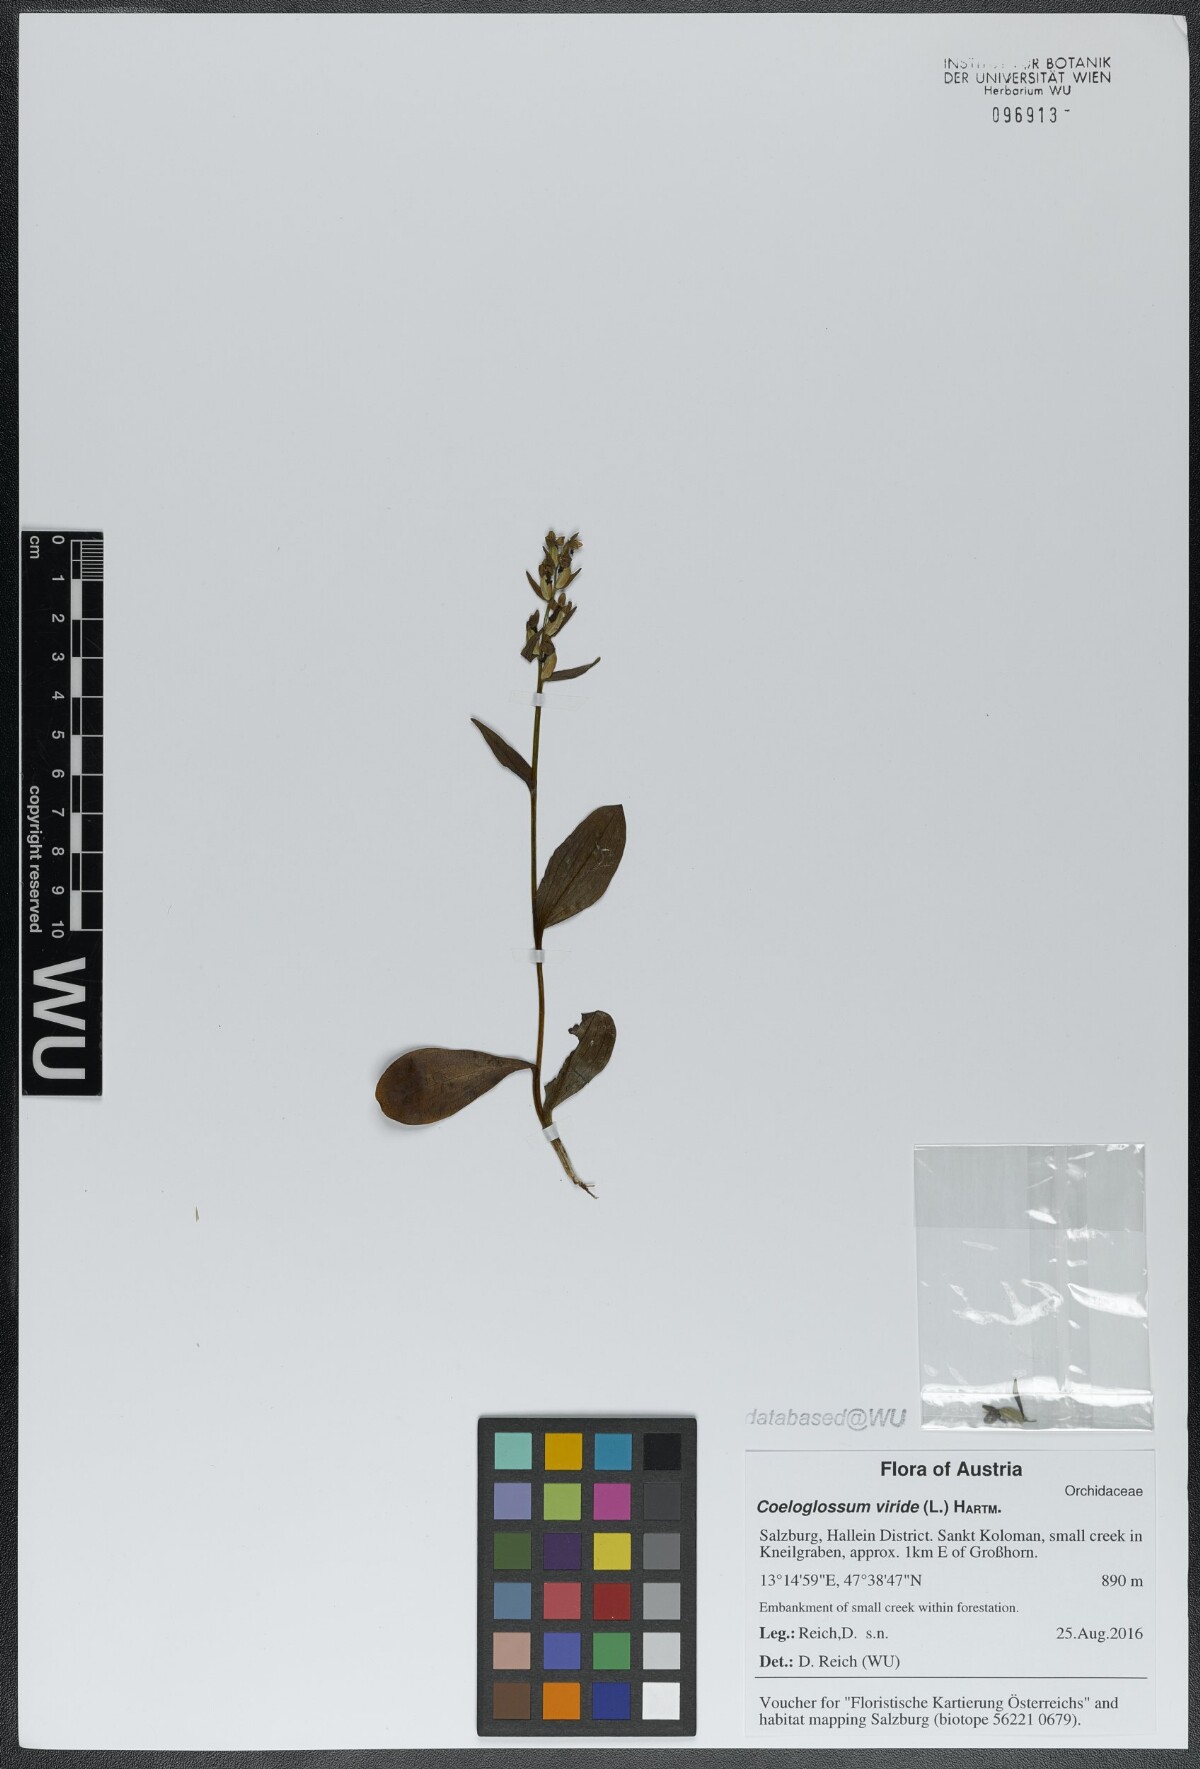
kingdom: Plantae
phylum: Tracheophyta
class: Liliopsida
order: Asparagales
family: Orchidaceae
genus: Dactylorhiza
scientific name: Dactylorhiza viridis
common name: Longbract frog orchid
